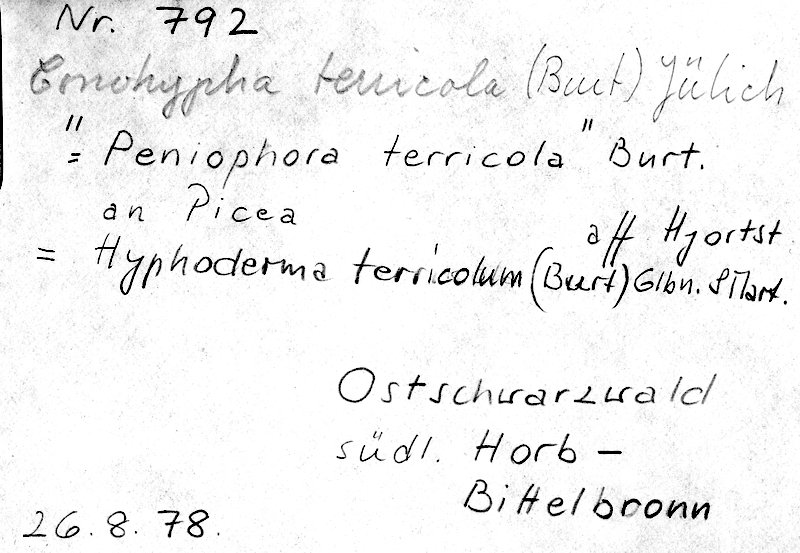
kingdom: Plantae
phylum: Tracheophyta
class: Pinopsida
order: Pinales
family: Pinaceae
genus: Picea
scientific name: Picea
